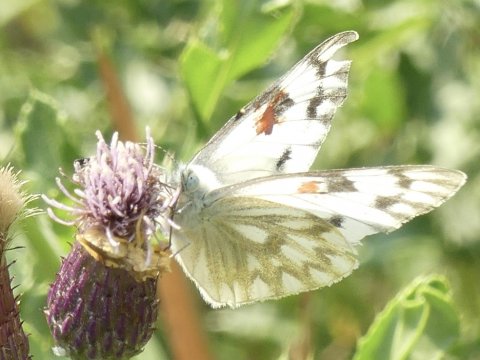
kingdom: Animalia
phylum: Arthropoda
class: Insecta
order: Lepidoptera
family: Pieridae
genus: Pontia
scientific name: Pontia occidentalis
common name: Western White
